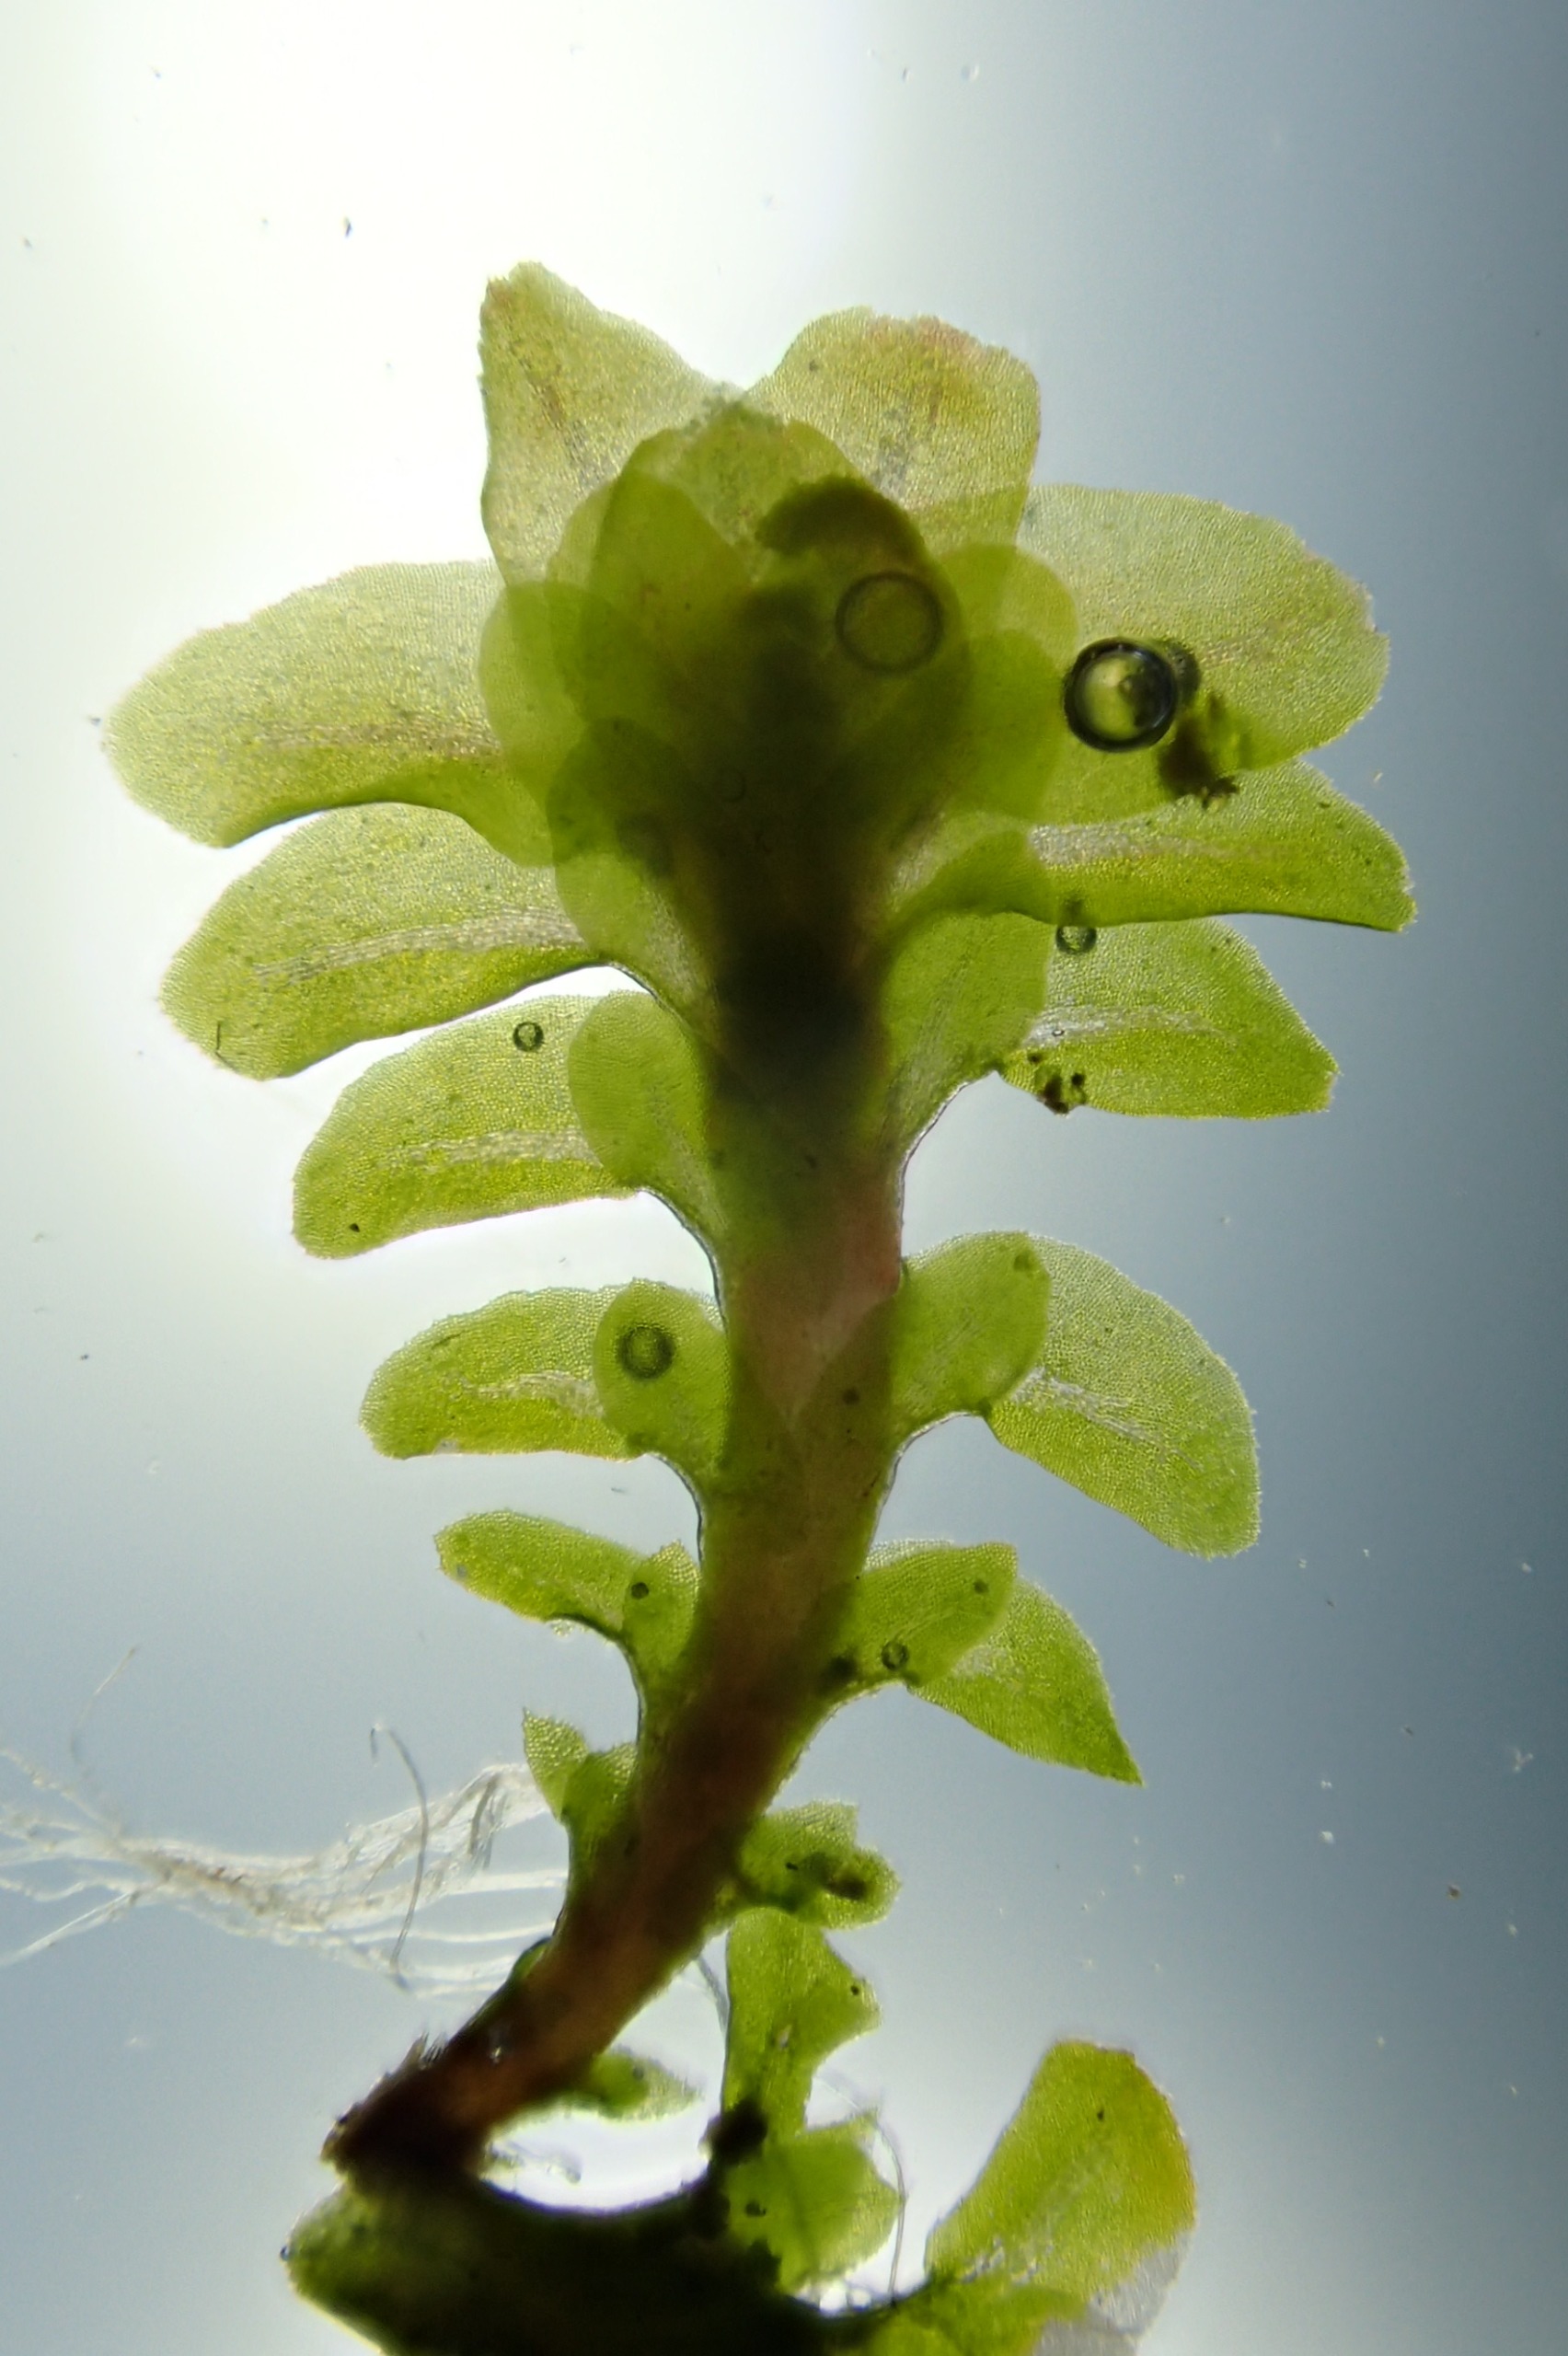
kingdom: Plantae
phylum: Marchantiophyta
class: Jungermanniopsida
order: Jungermanniales
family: Scapaniaceae
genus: Diplophyllum
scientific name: Diplophyllum albicans
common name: Stribet dobbeltblad
